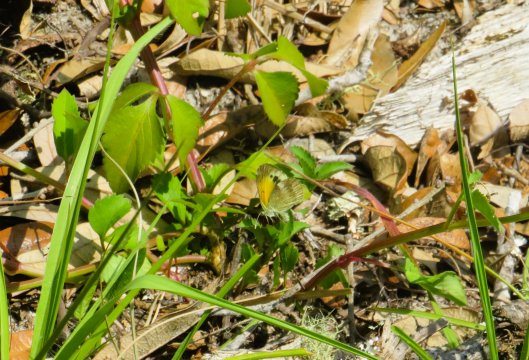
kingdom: Animalia
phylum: Arthropoda
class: Insecta
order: Lepidoptera
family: Pieridae
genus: Nathalis
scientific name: Nathalis iole
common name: Dainty Sulphur
